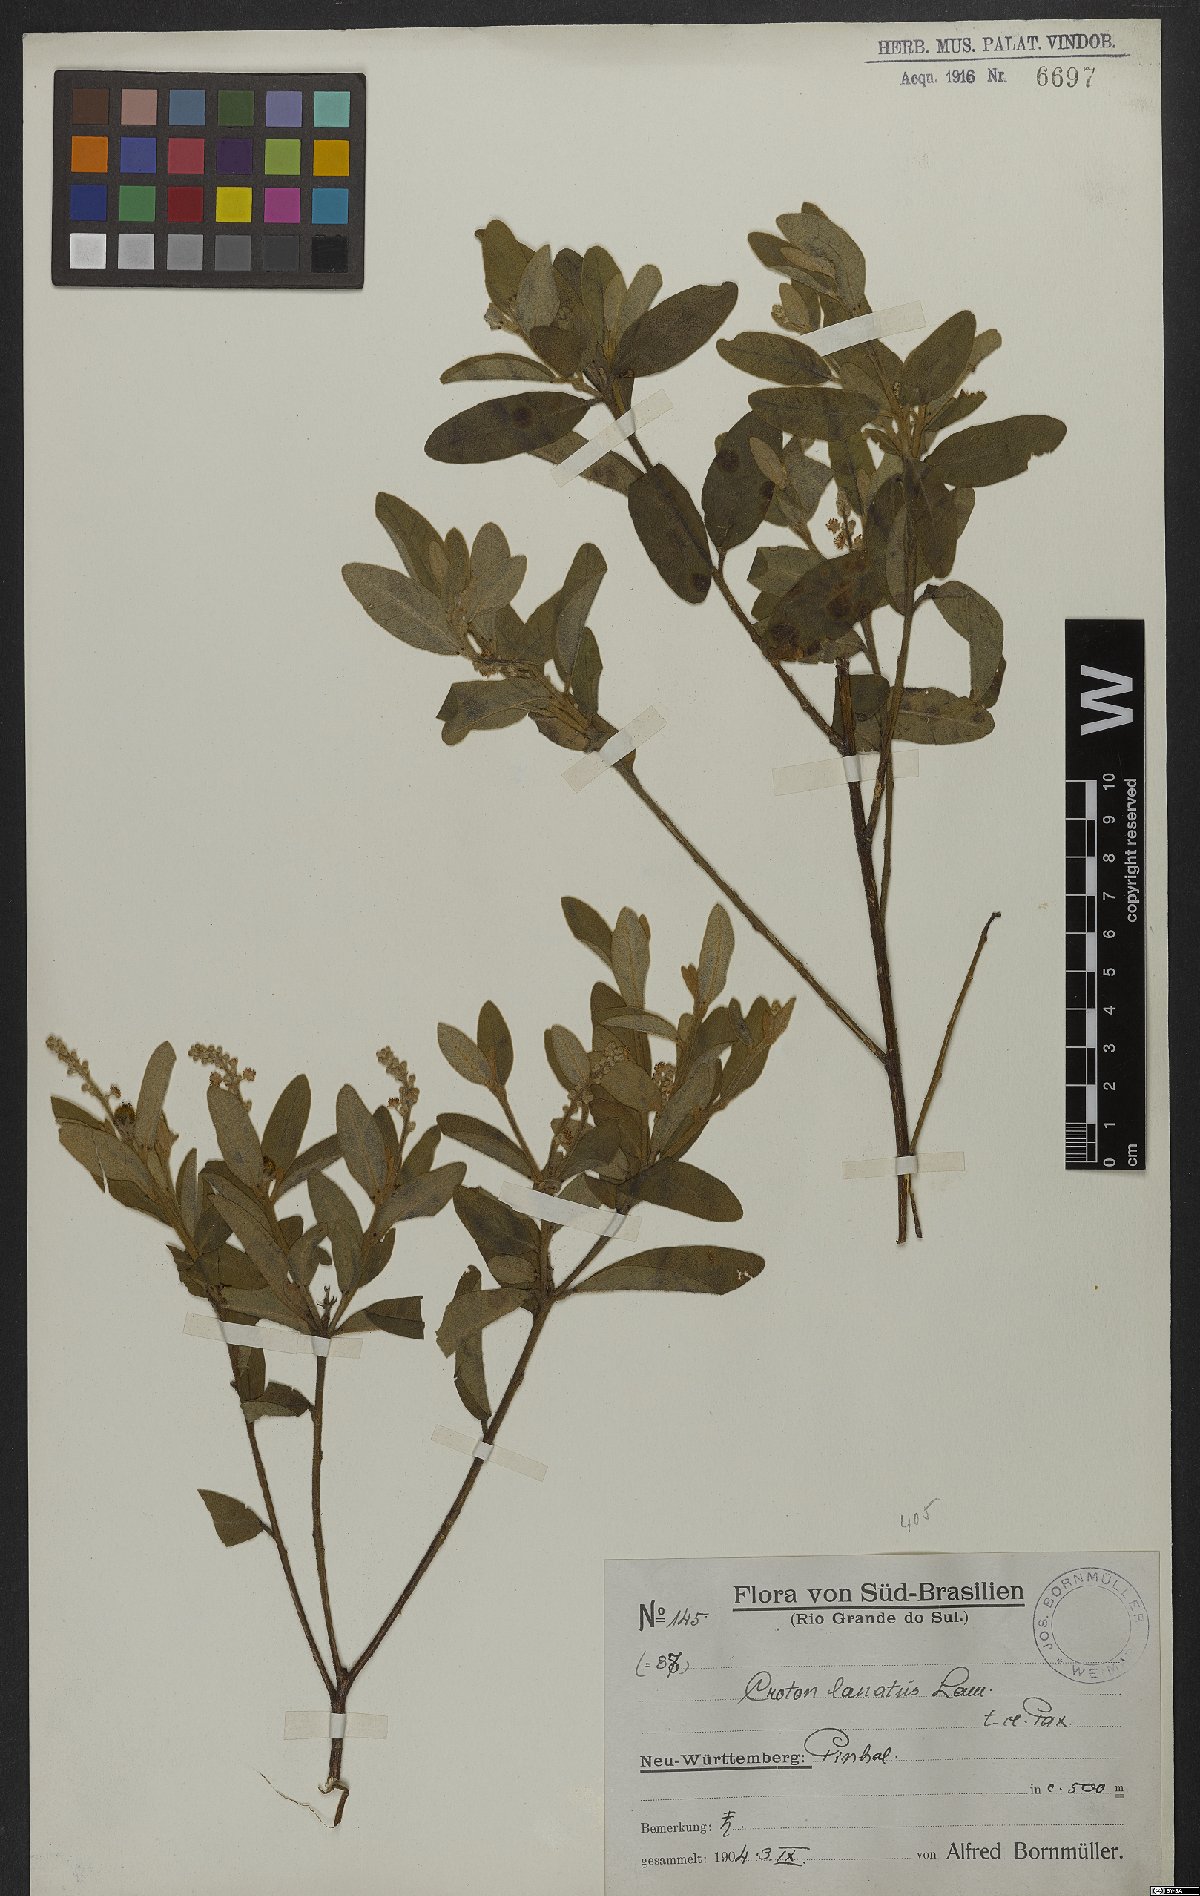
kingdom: Plantae
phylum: Tracheophyta
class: Magnoliopsida
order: Malpighiales
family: Euphorbiaceae
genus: Croton
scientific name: Croton lanatus
